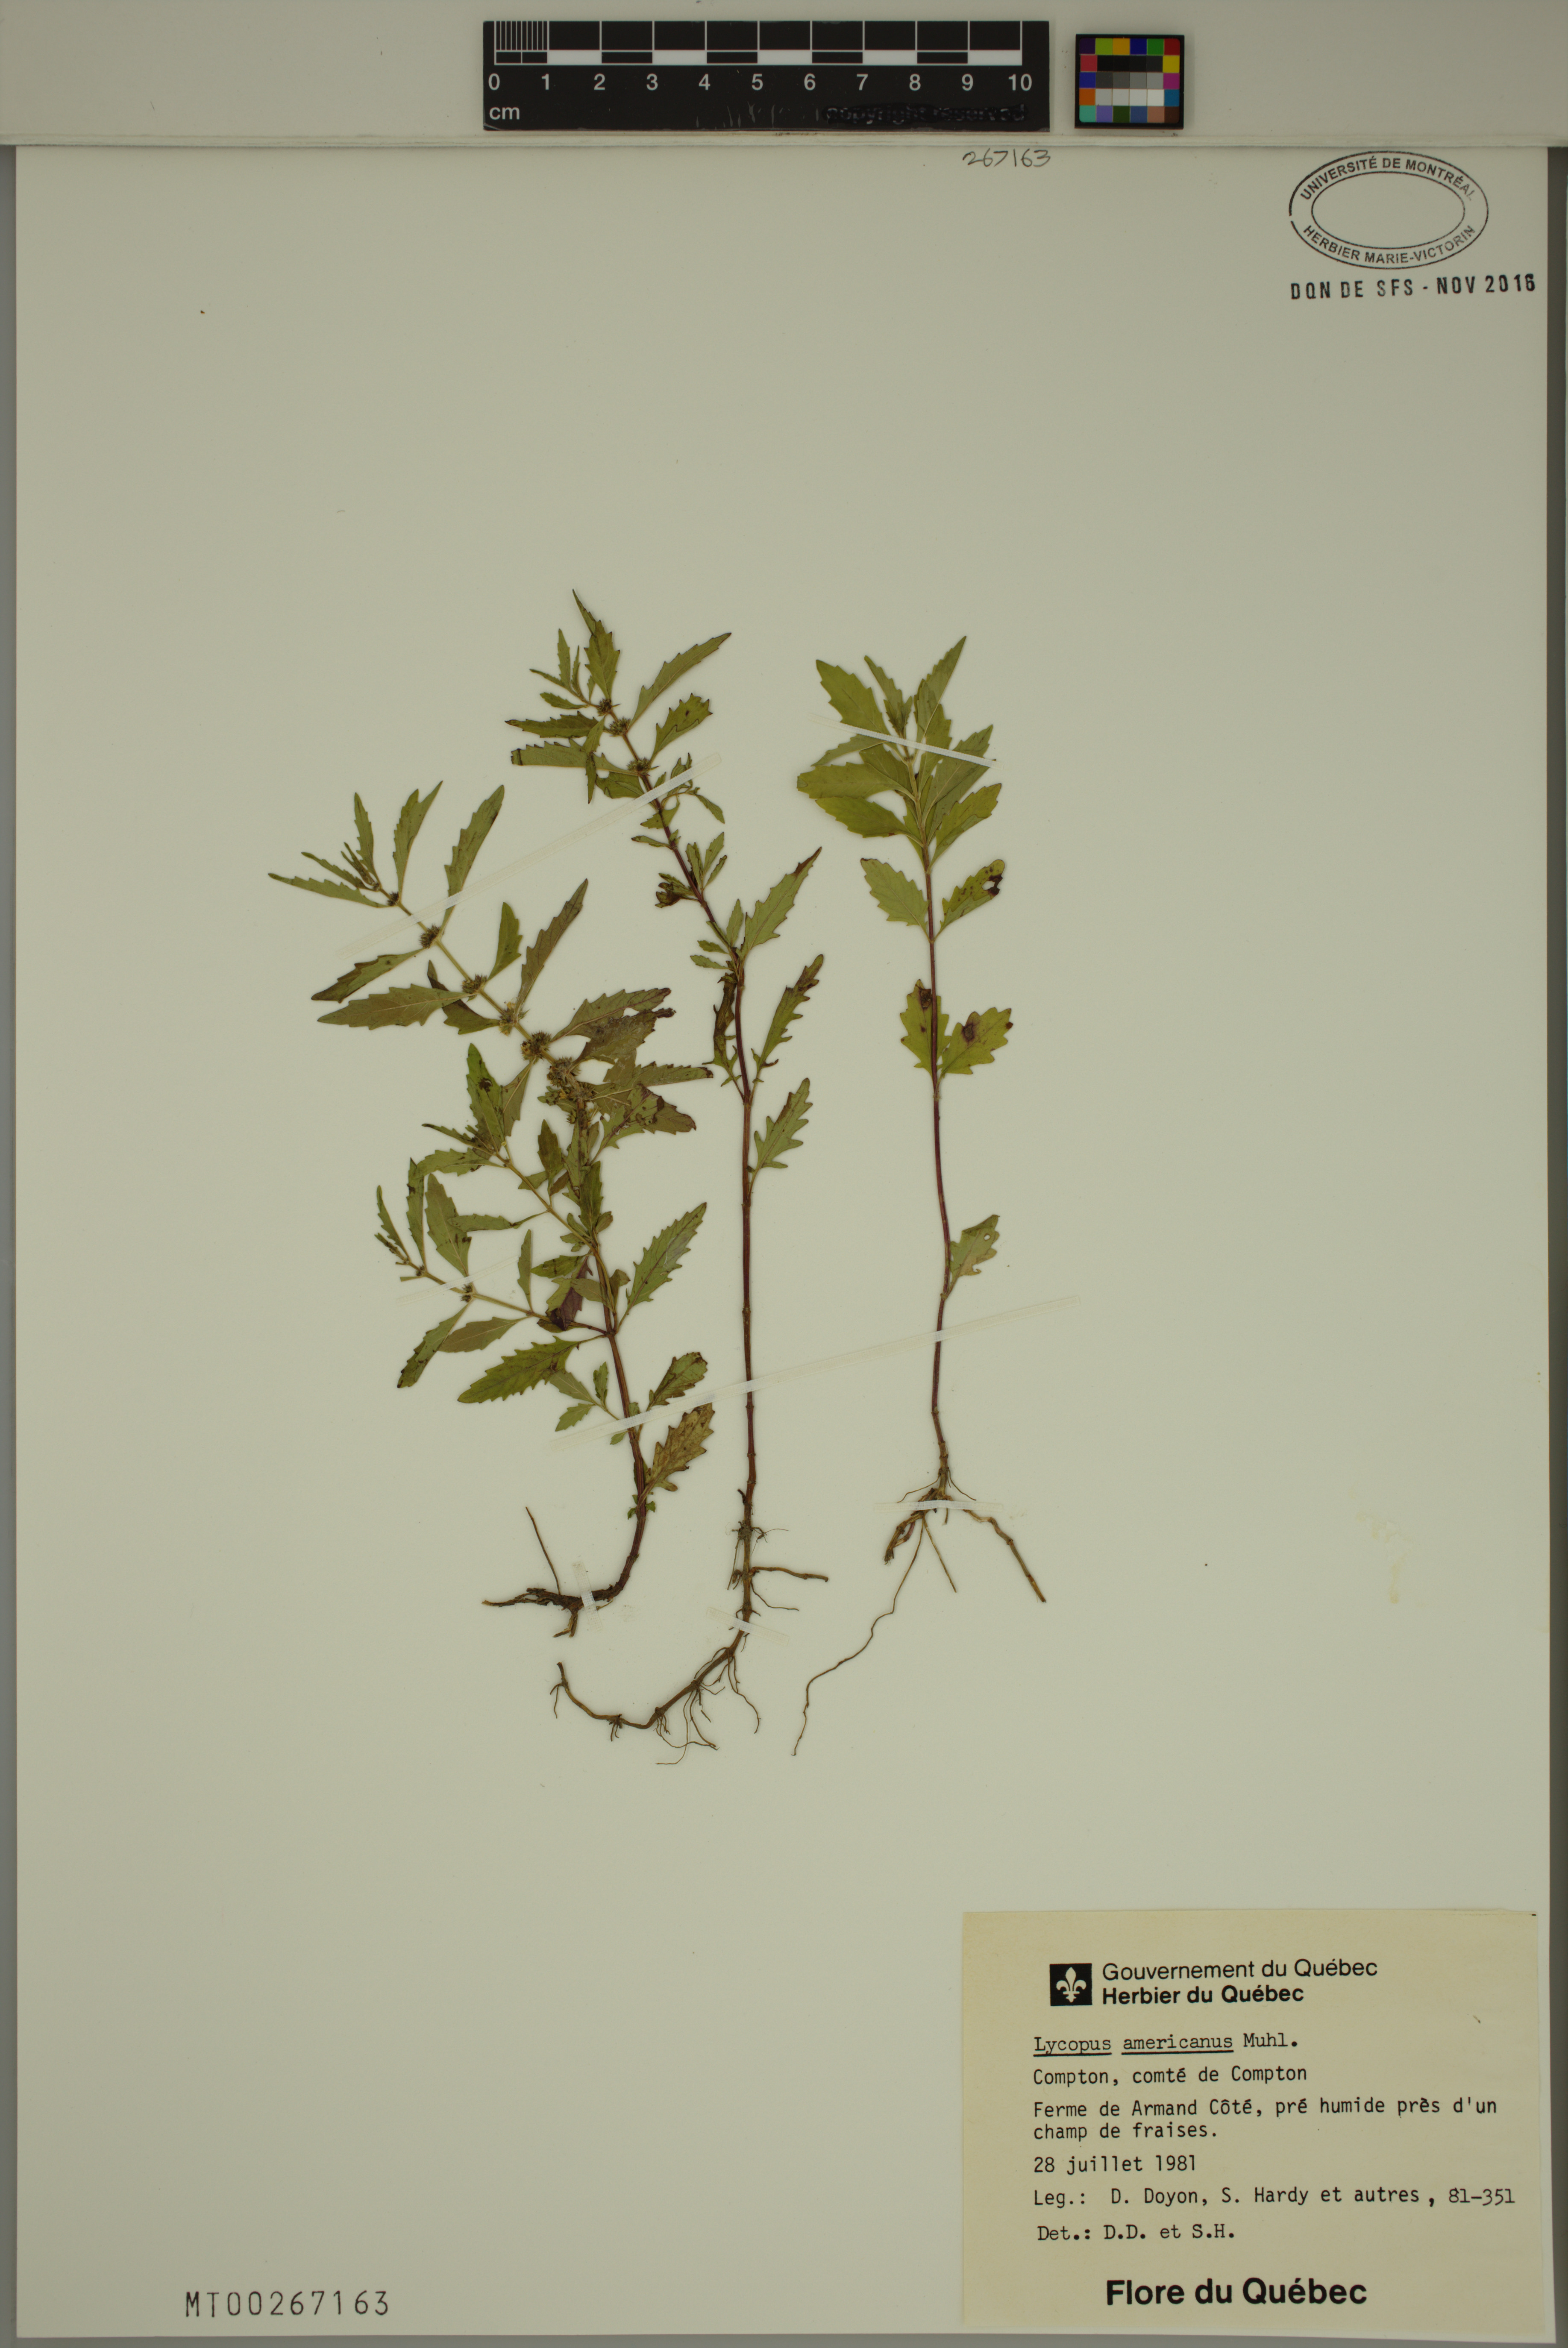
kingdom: Plantae
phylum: Tracheophyta
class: Magnoliopsida
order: Lamiales
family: Lamiaceae
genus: Lycopus
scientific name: Lycopus americanus
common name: American bugleweed
